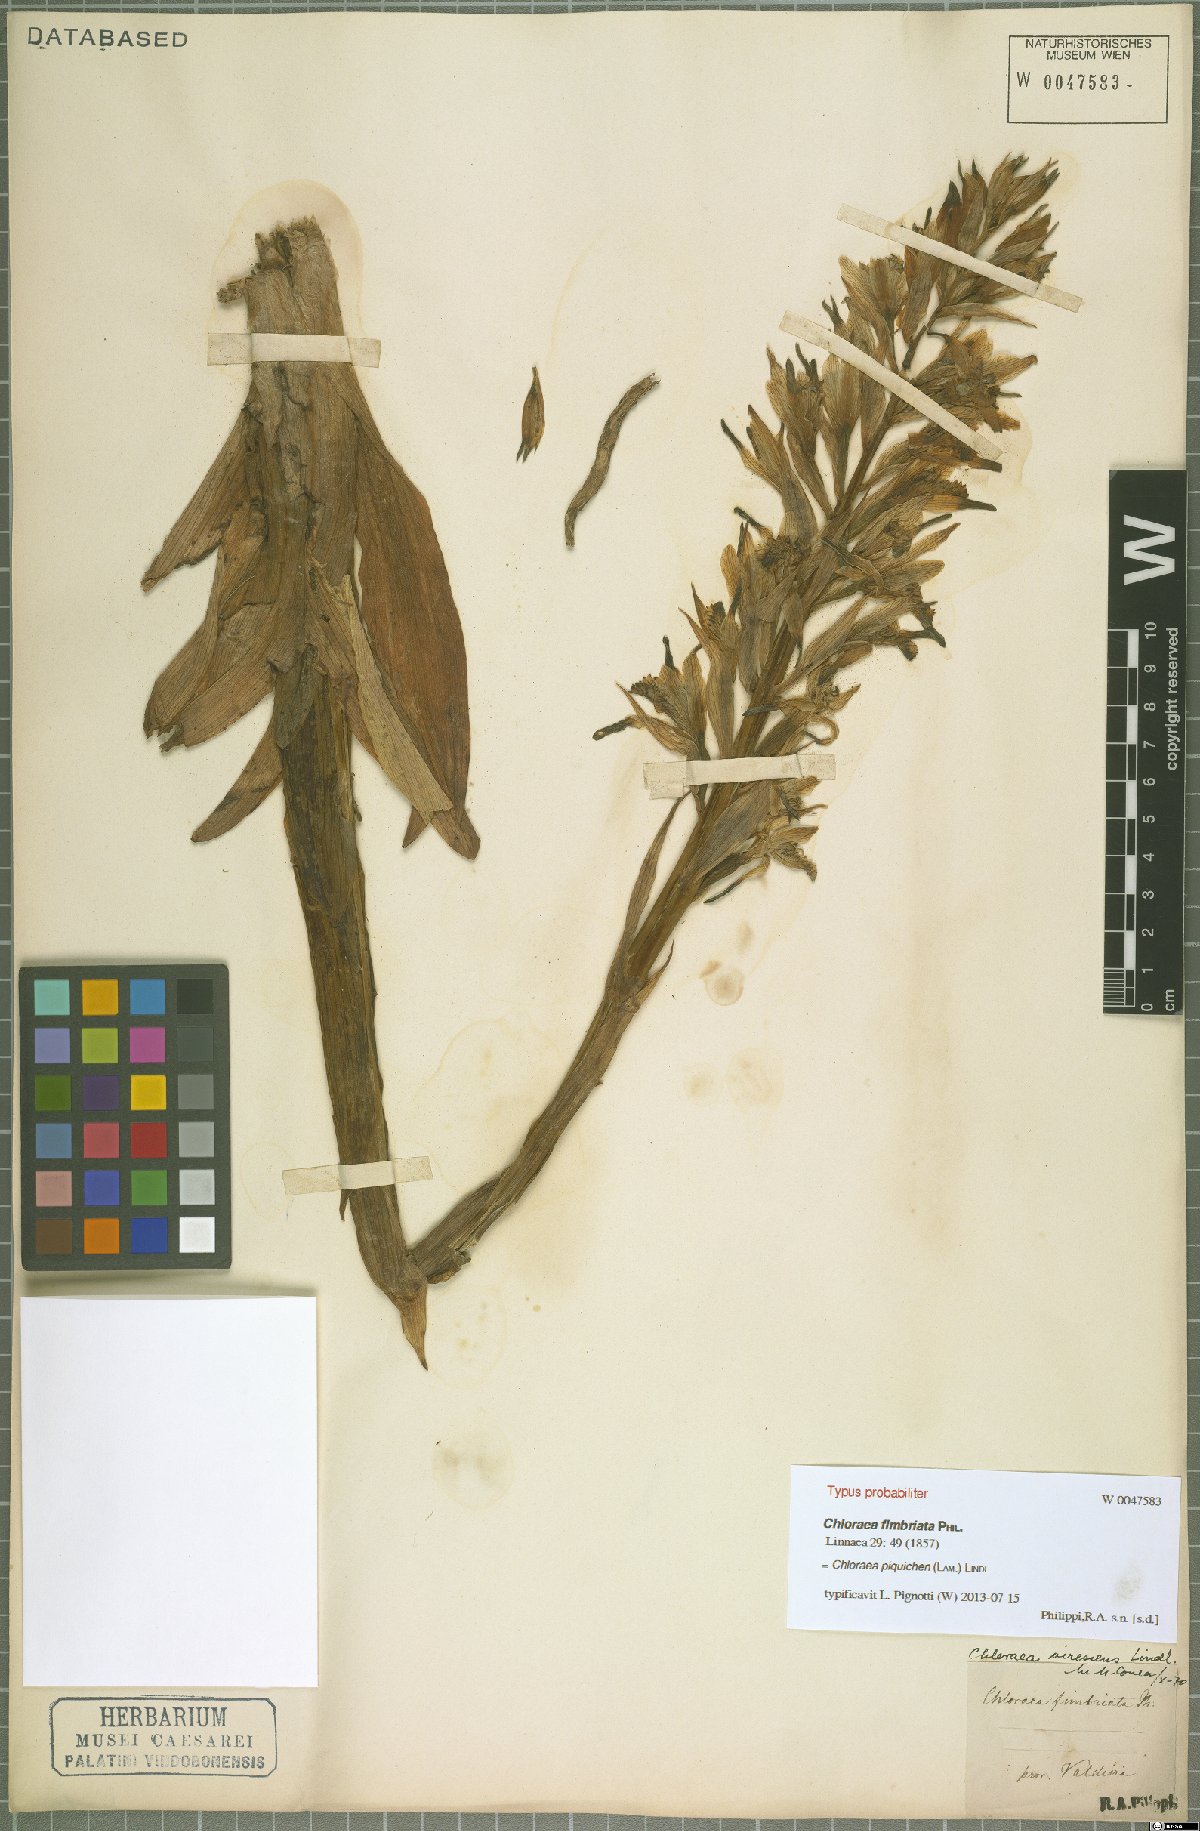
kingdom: Plantae
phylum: Tracheophyta
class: Liliopsida
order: Asparagales
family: Orchidaceae
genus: Chloraea
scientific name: Chloraea piquichen
